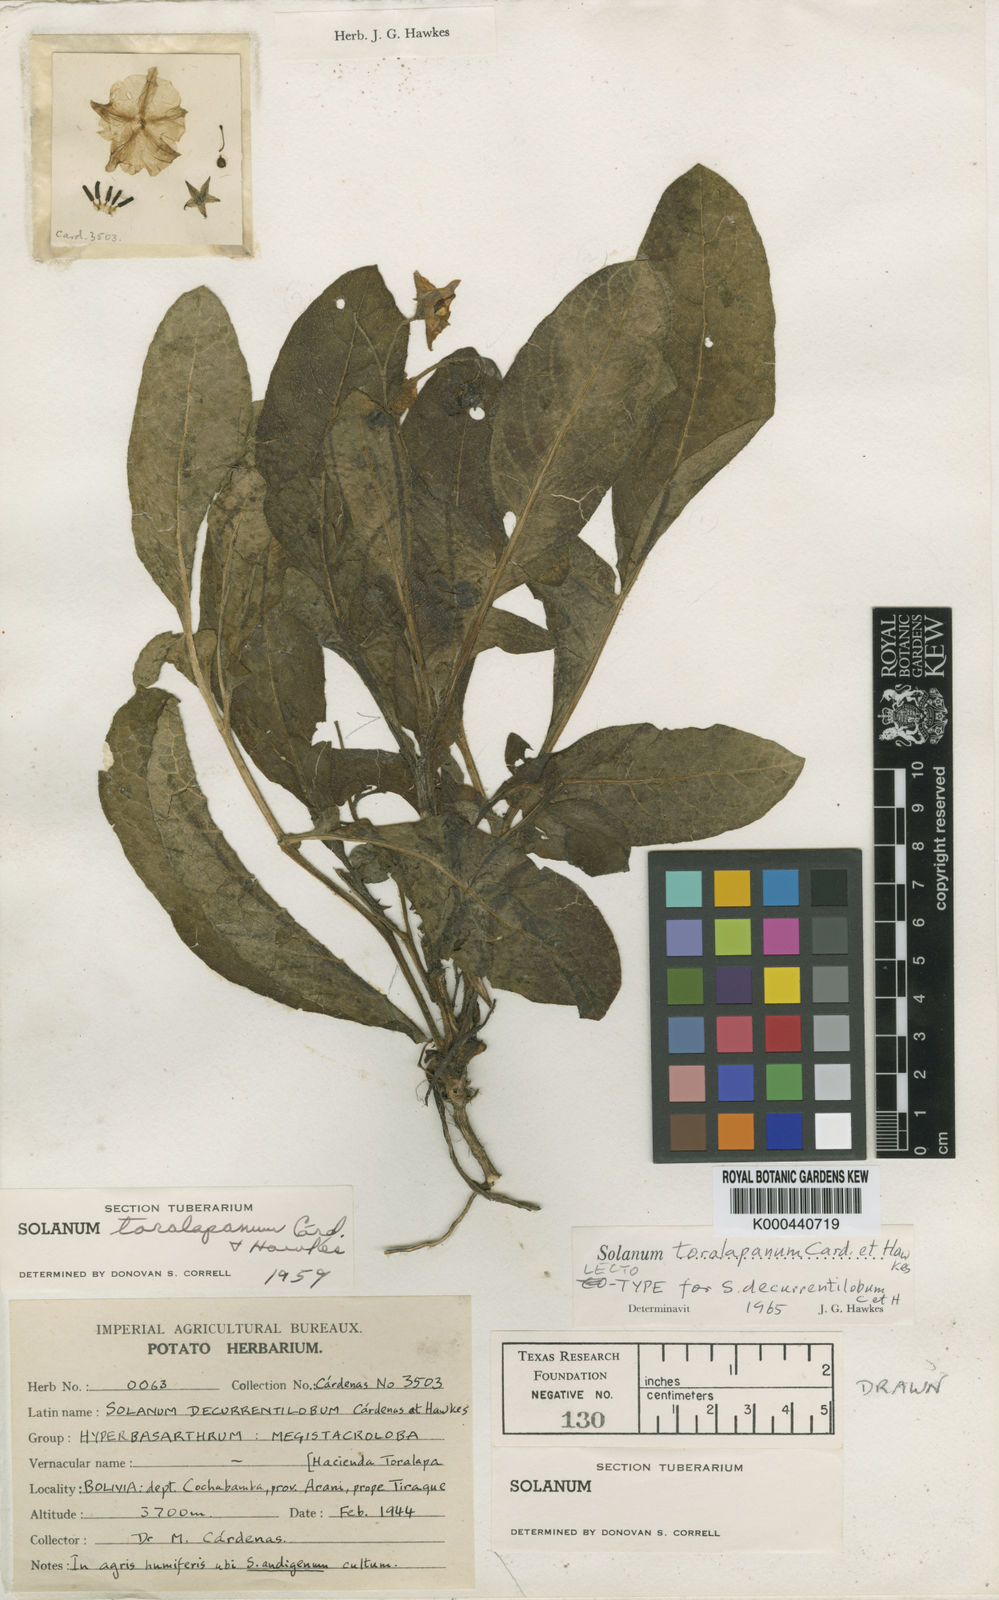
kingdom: Plantae
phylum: Tracheophyta
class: Magnoliopsida
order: Solanales
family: Solanaceae
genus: Solanum
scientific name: Solanum
